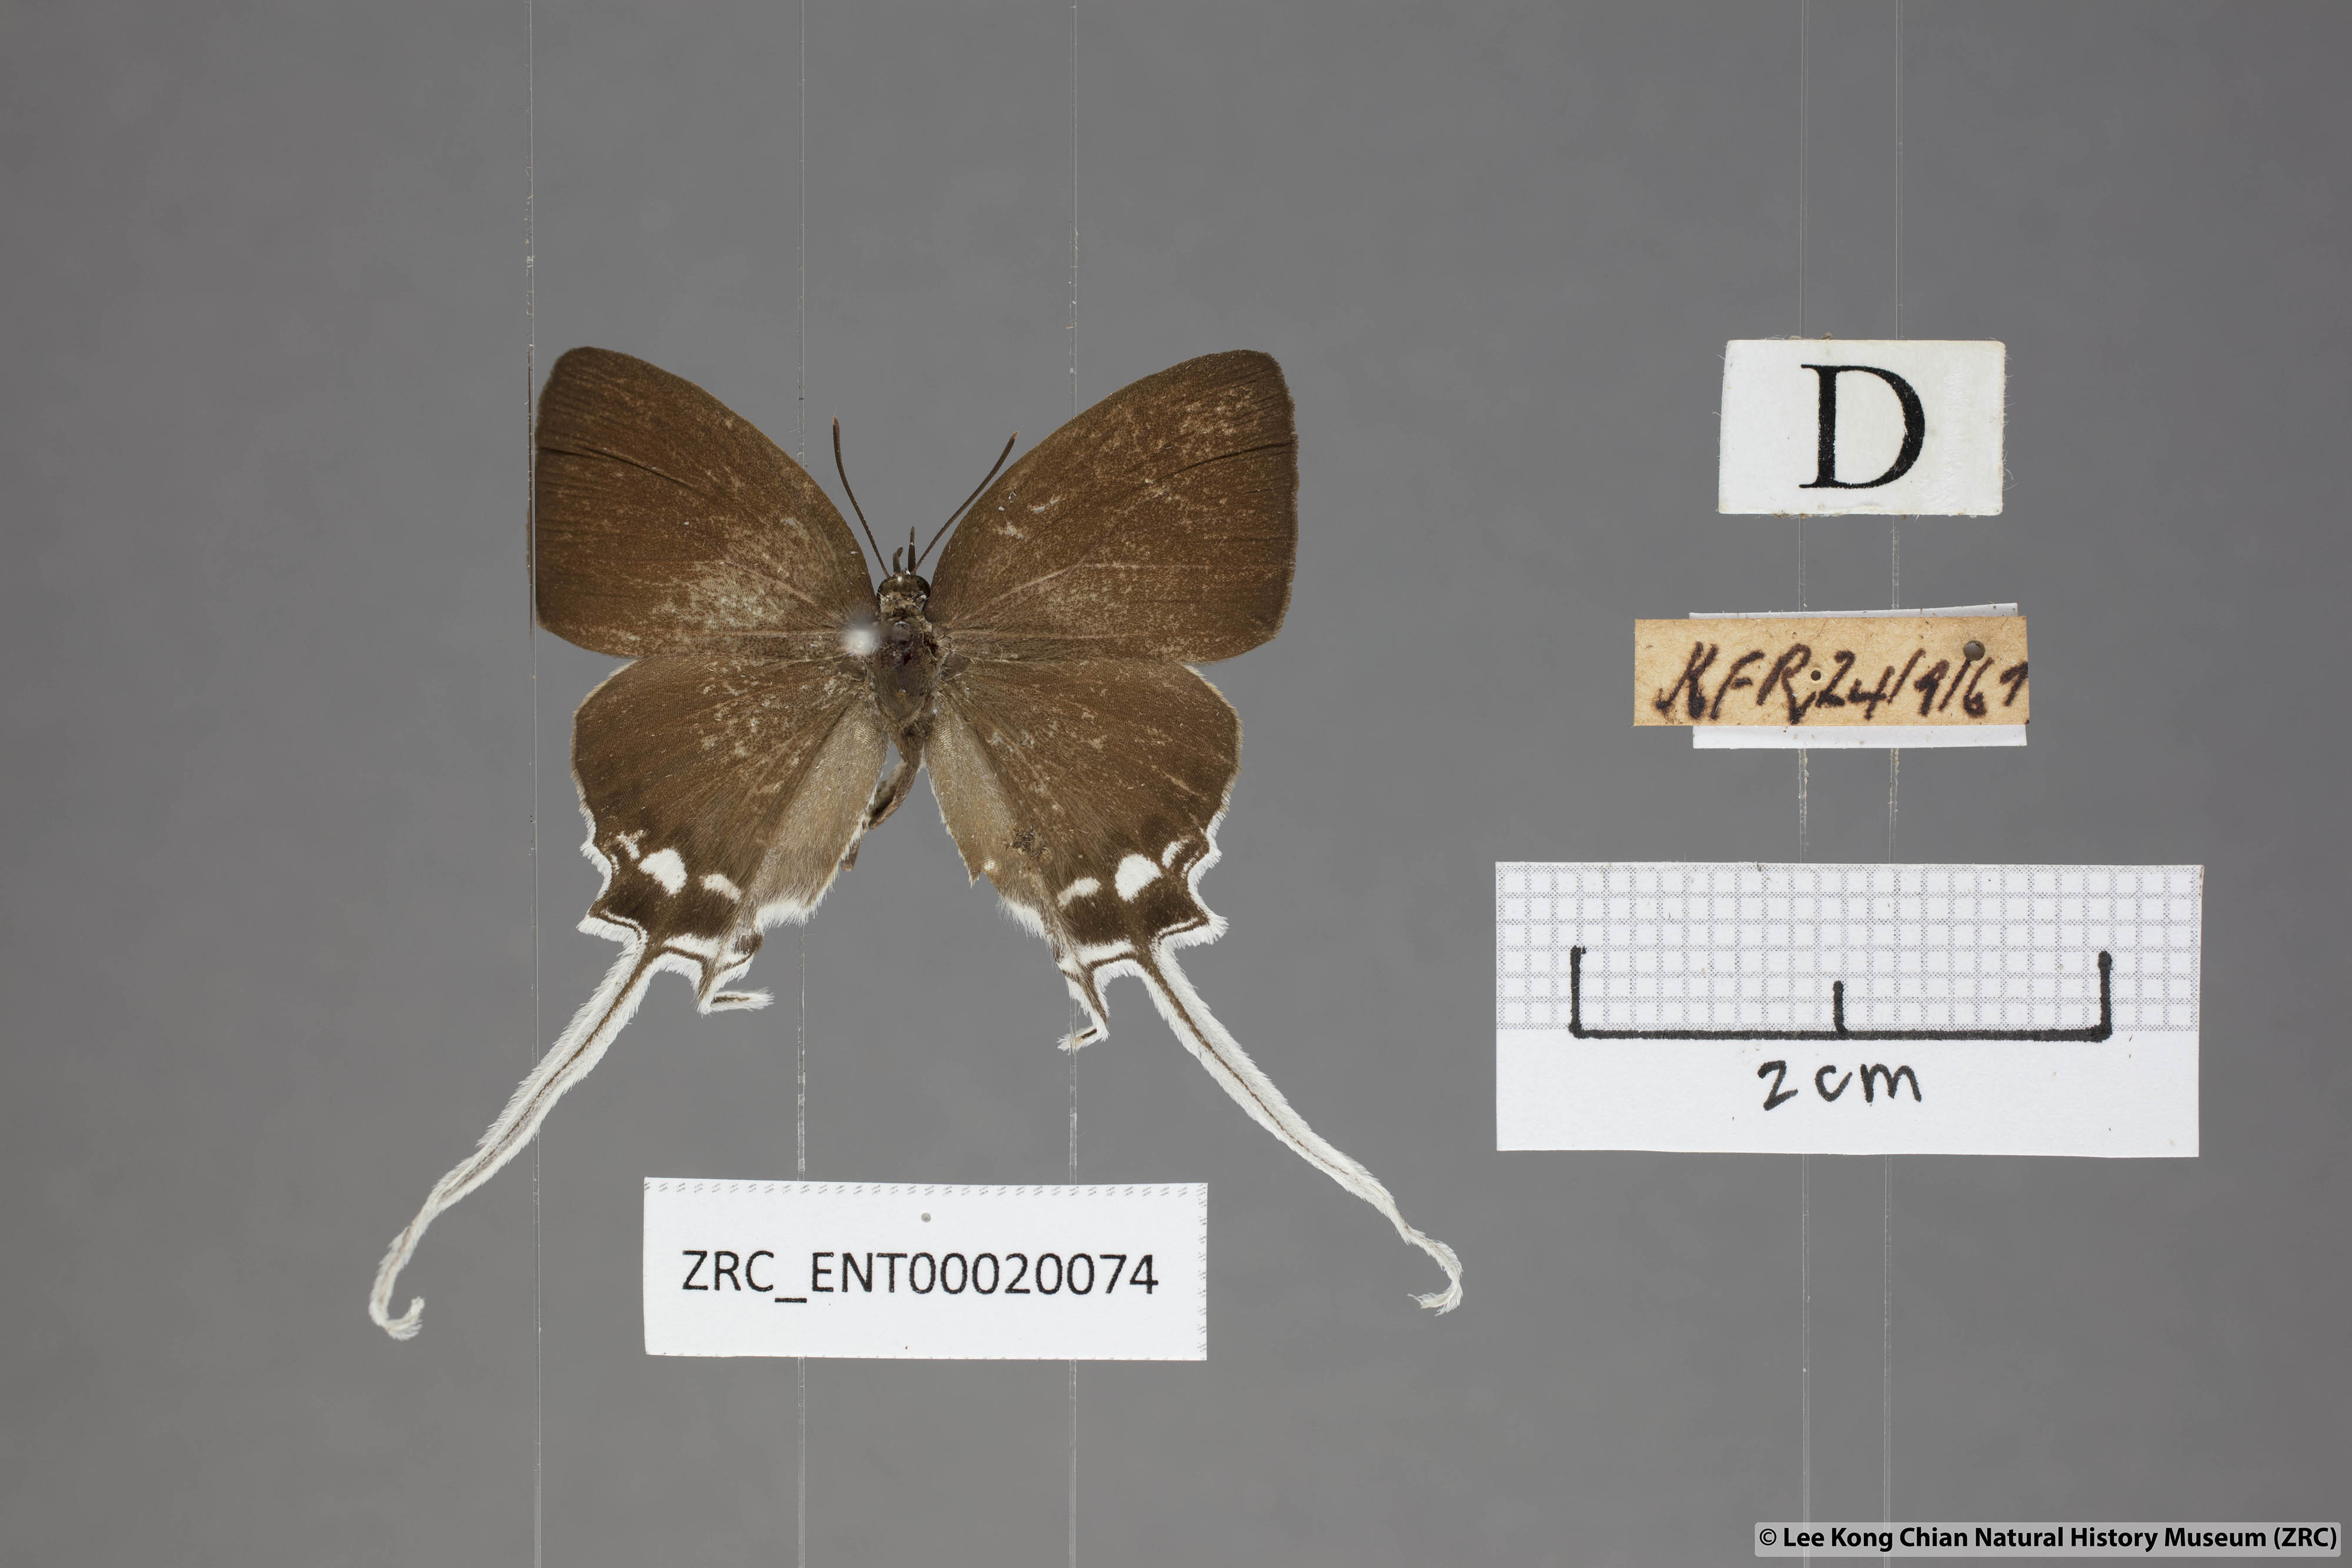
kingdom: Animalia
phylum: Arthropoda
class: Insecta
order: Lepidoptera
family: Lycaenidae
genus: Cheritra
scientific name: Cheritra freja
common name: Common imperial
